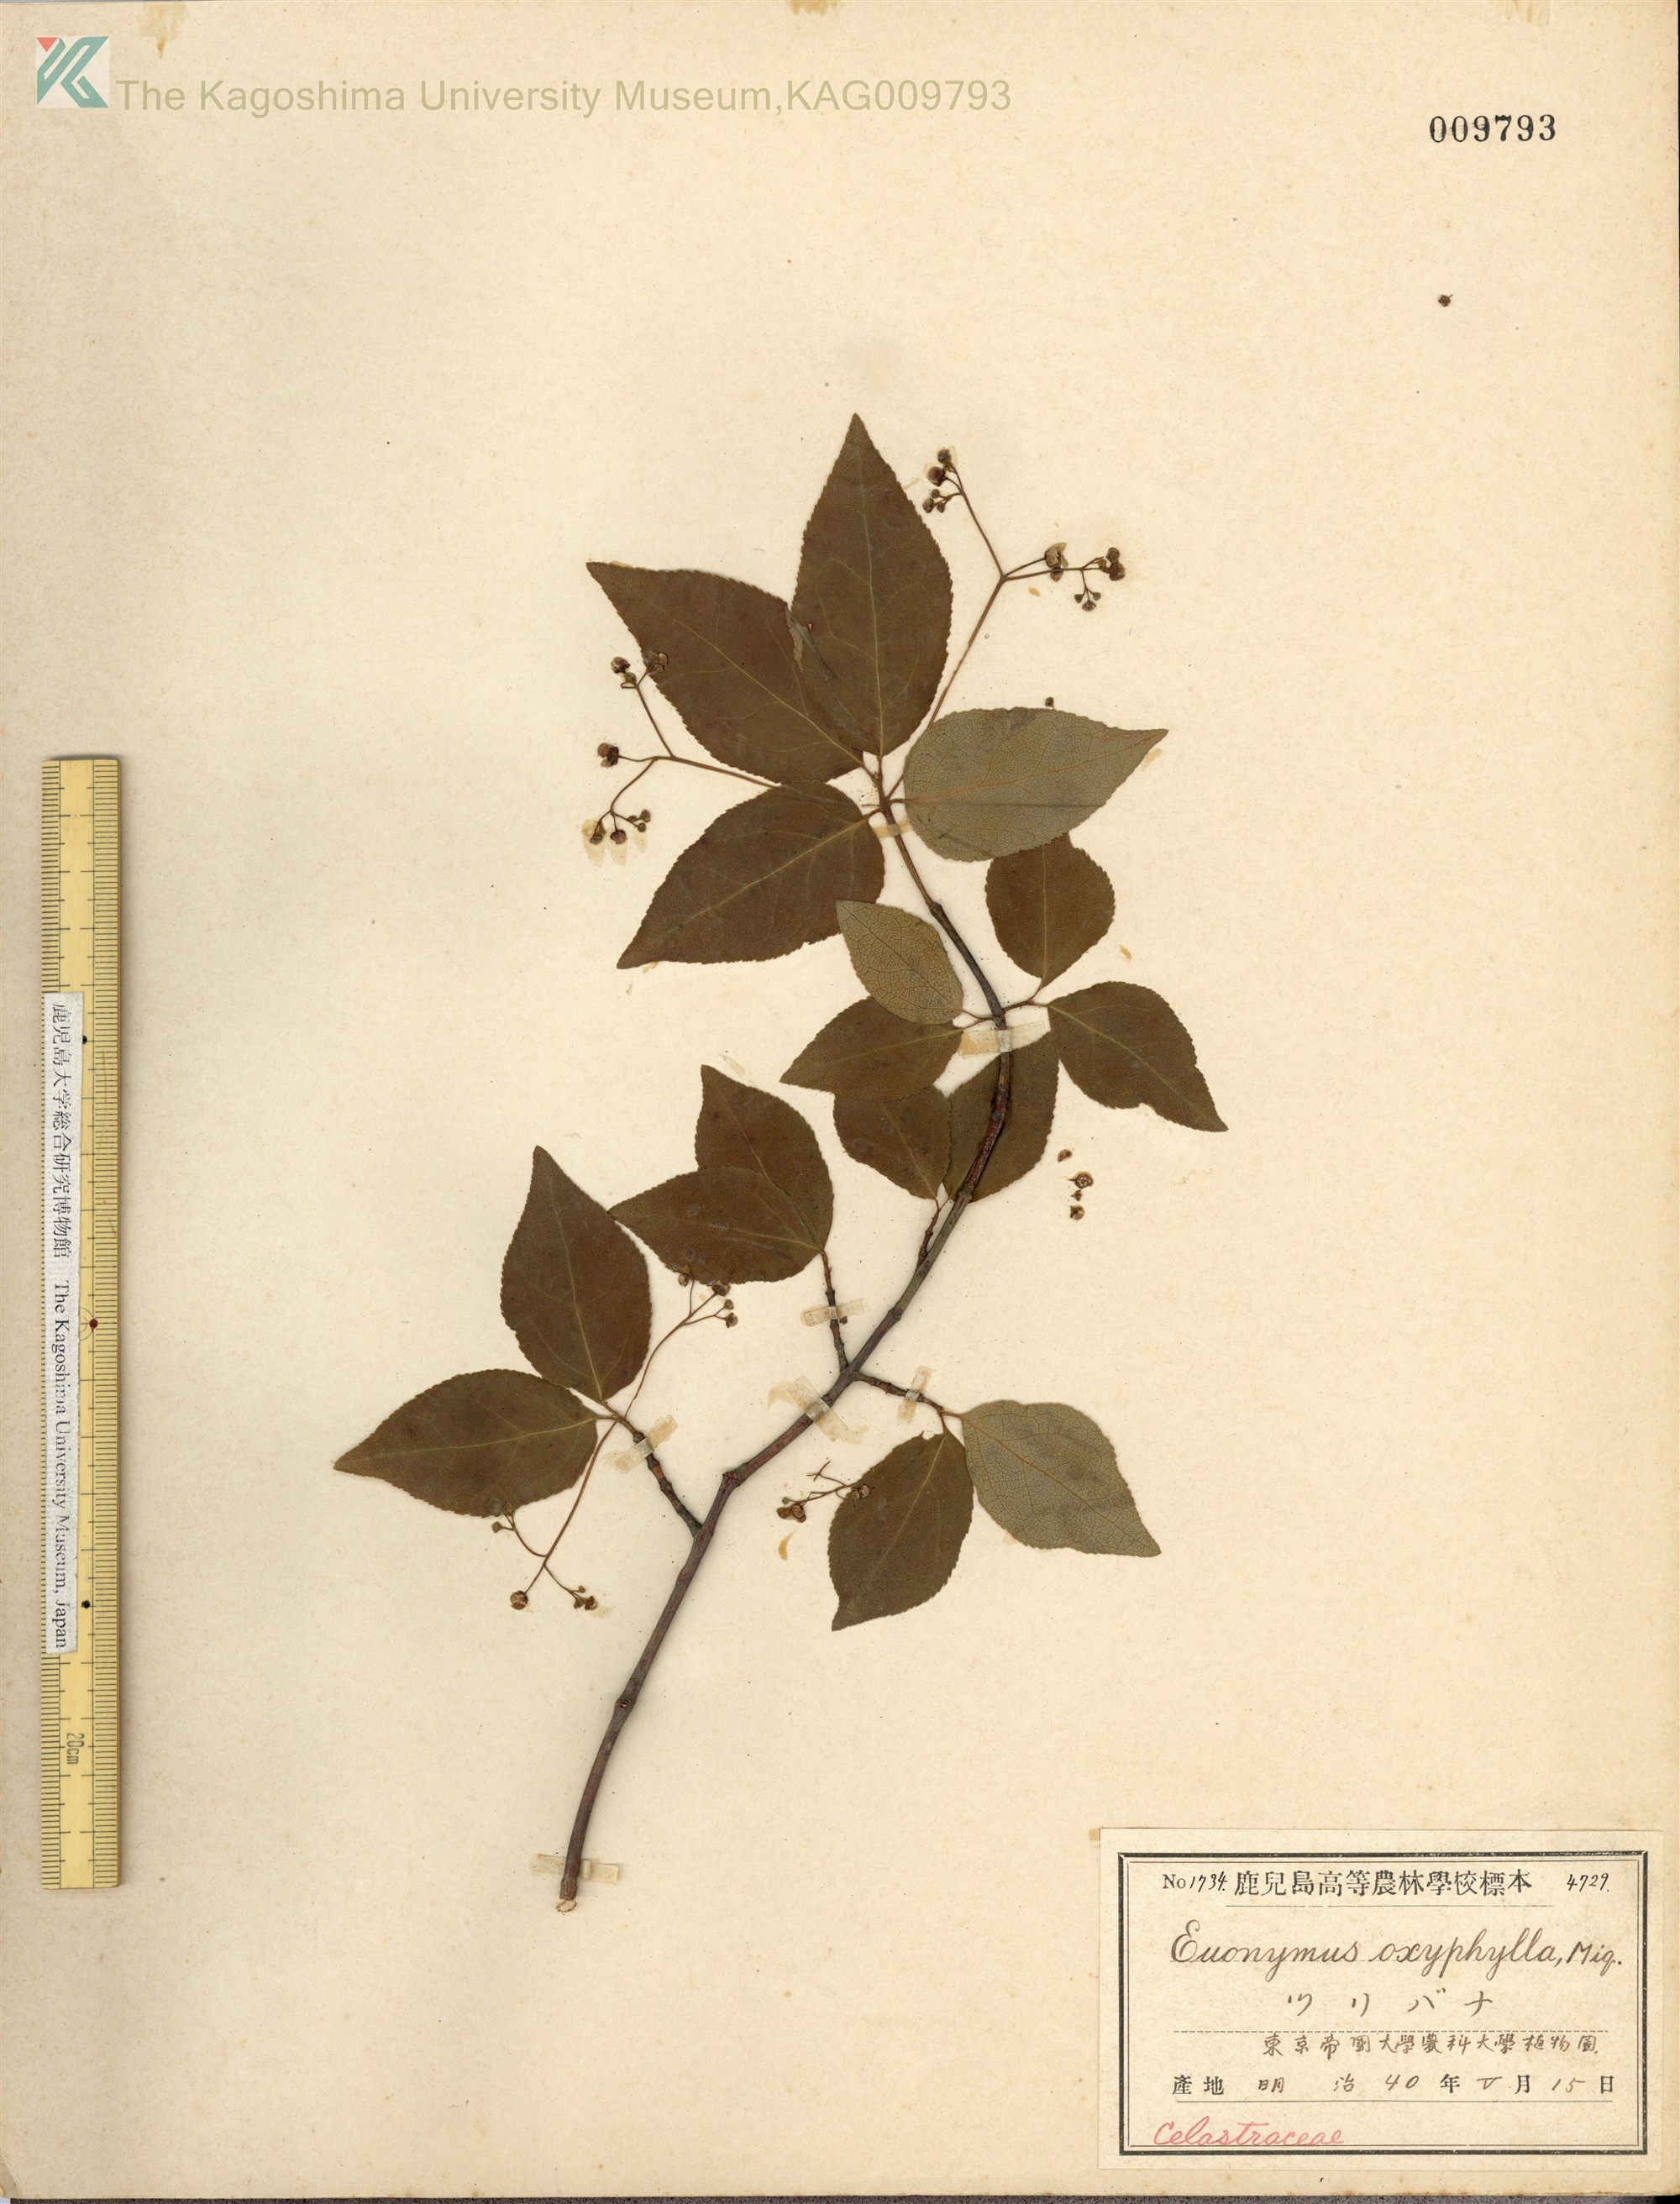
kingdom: Plantae
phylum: Tracheophyta
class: Magnoliopsida
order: Celastrales
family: Celastraceae
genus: Euonymus
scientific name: Euonymus oxyphyllus
